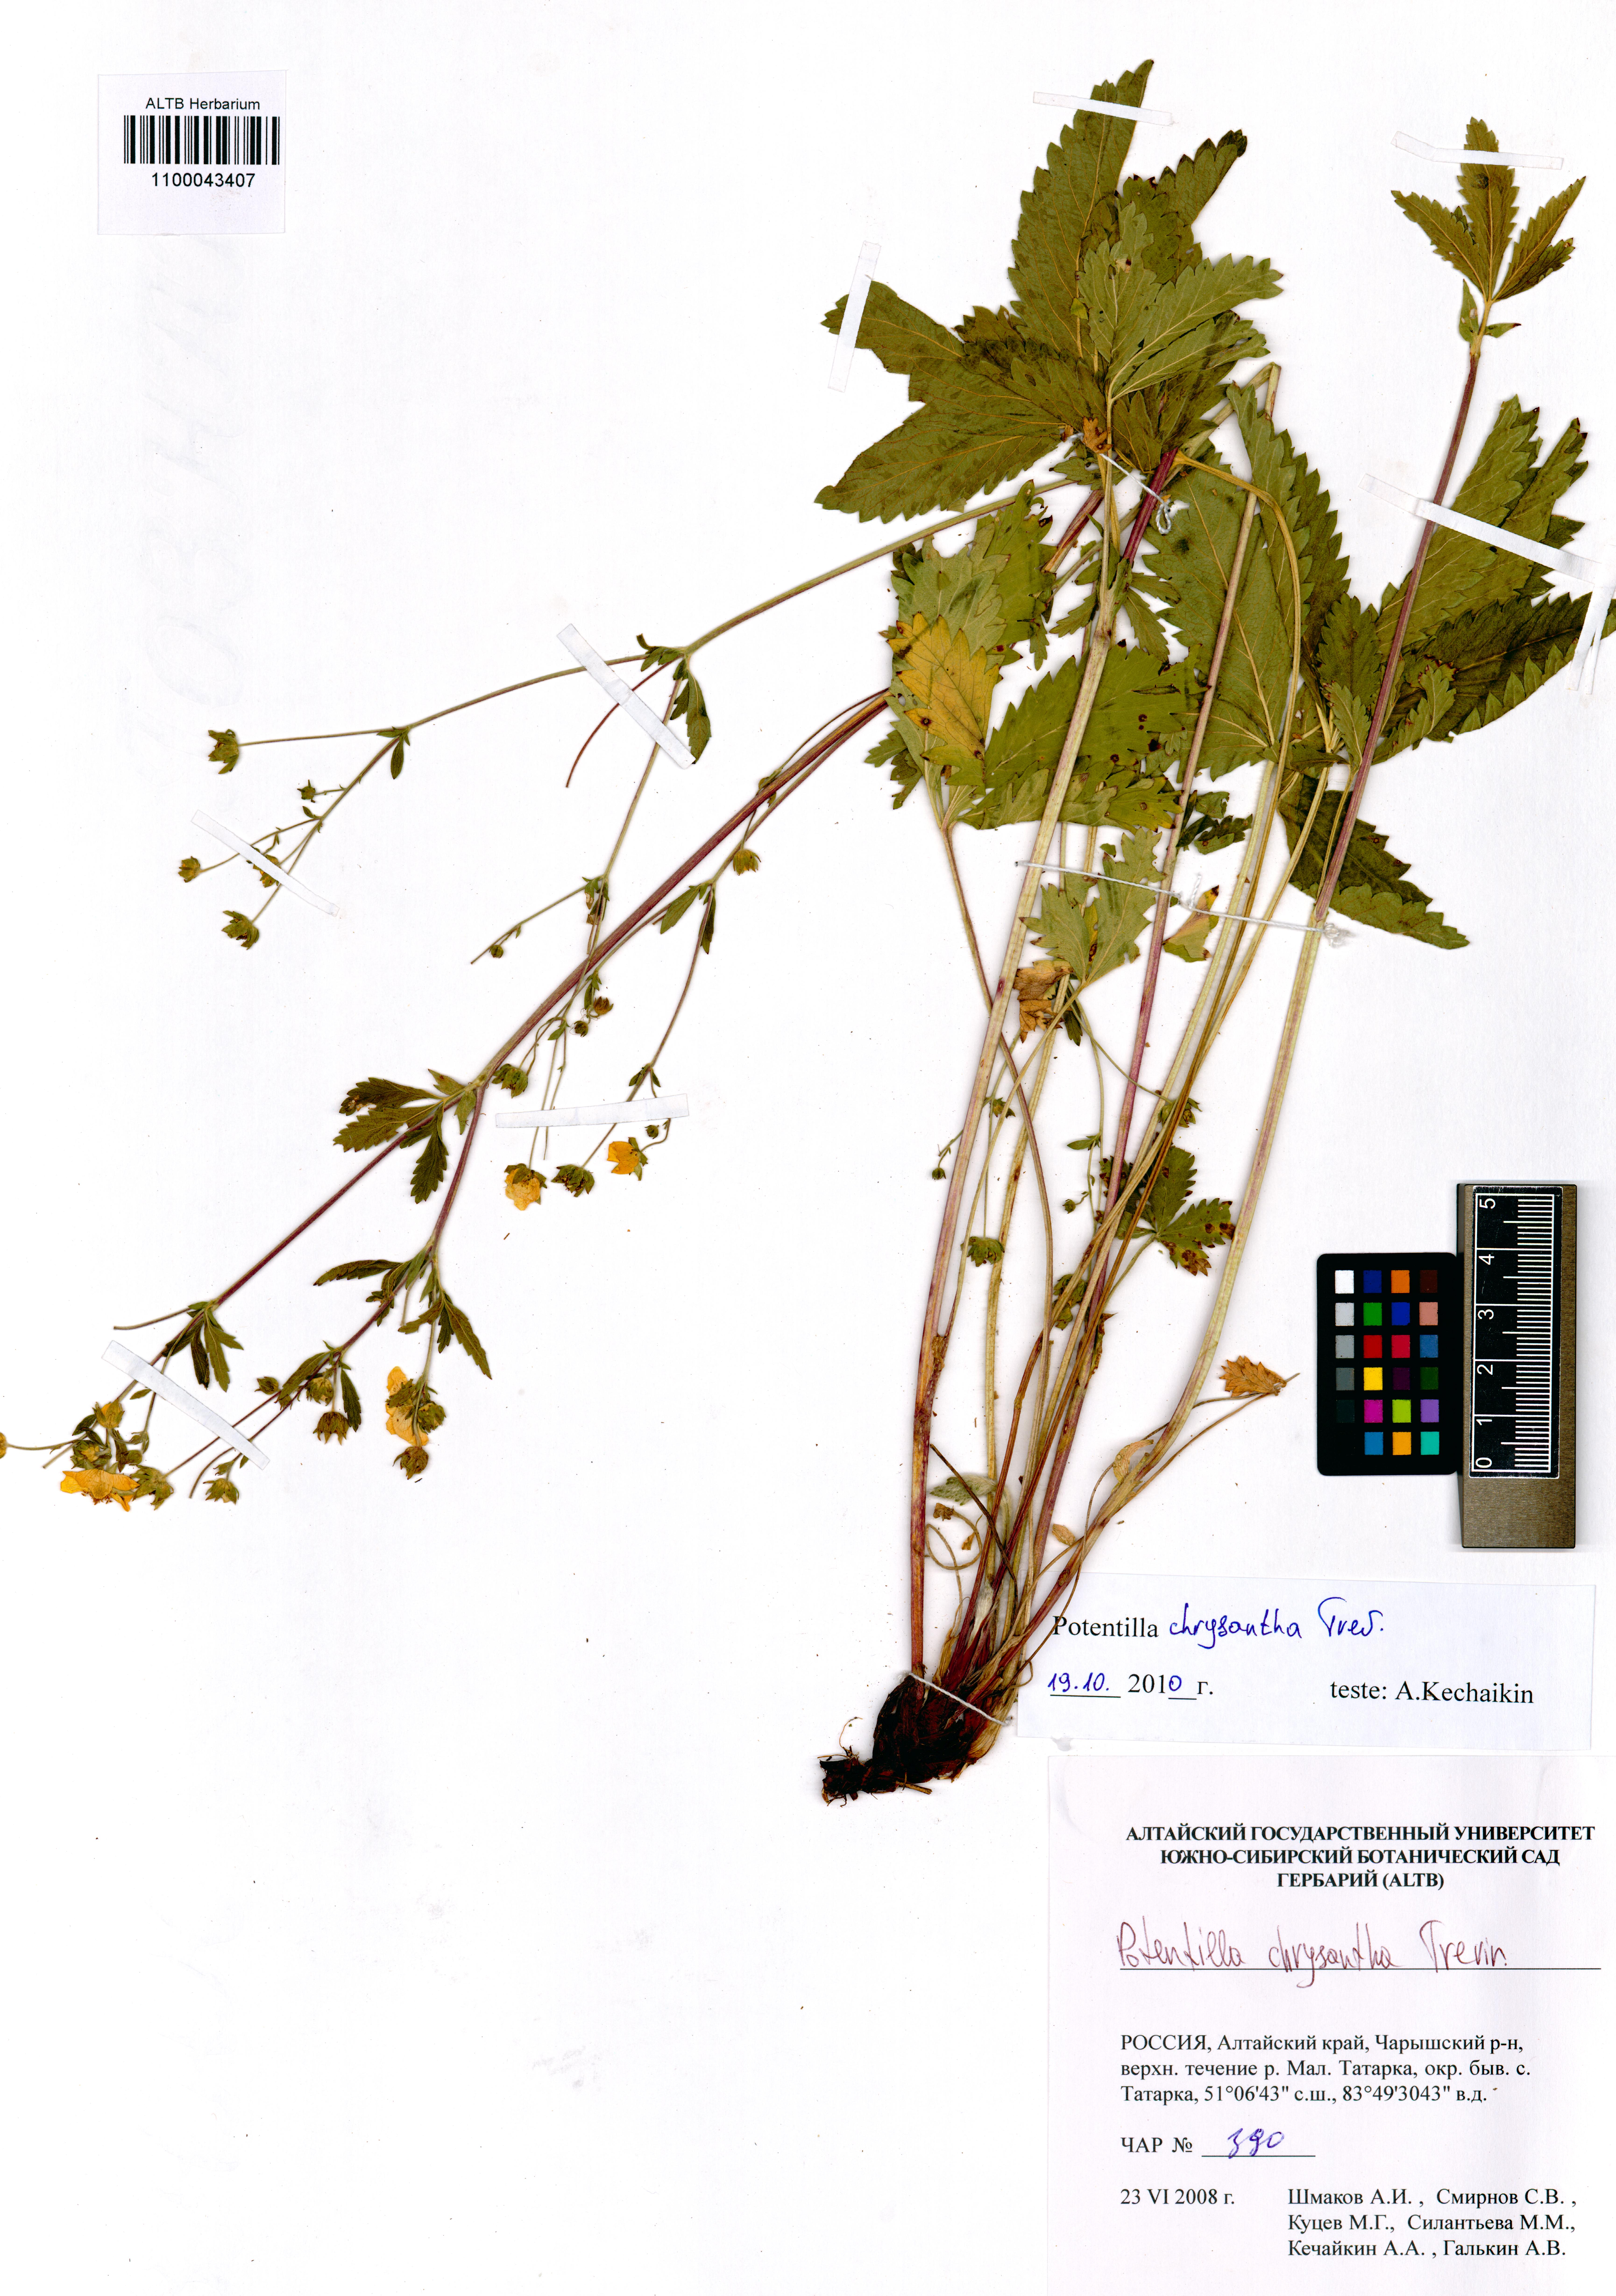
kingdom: Plantae
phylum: Tracheophyta
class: Magnoliopsida
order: Rosales
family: Rosaceae
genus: Potentilla
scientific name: Potentilla chrysantha
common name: Thuringian cinquefoil
